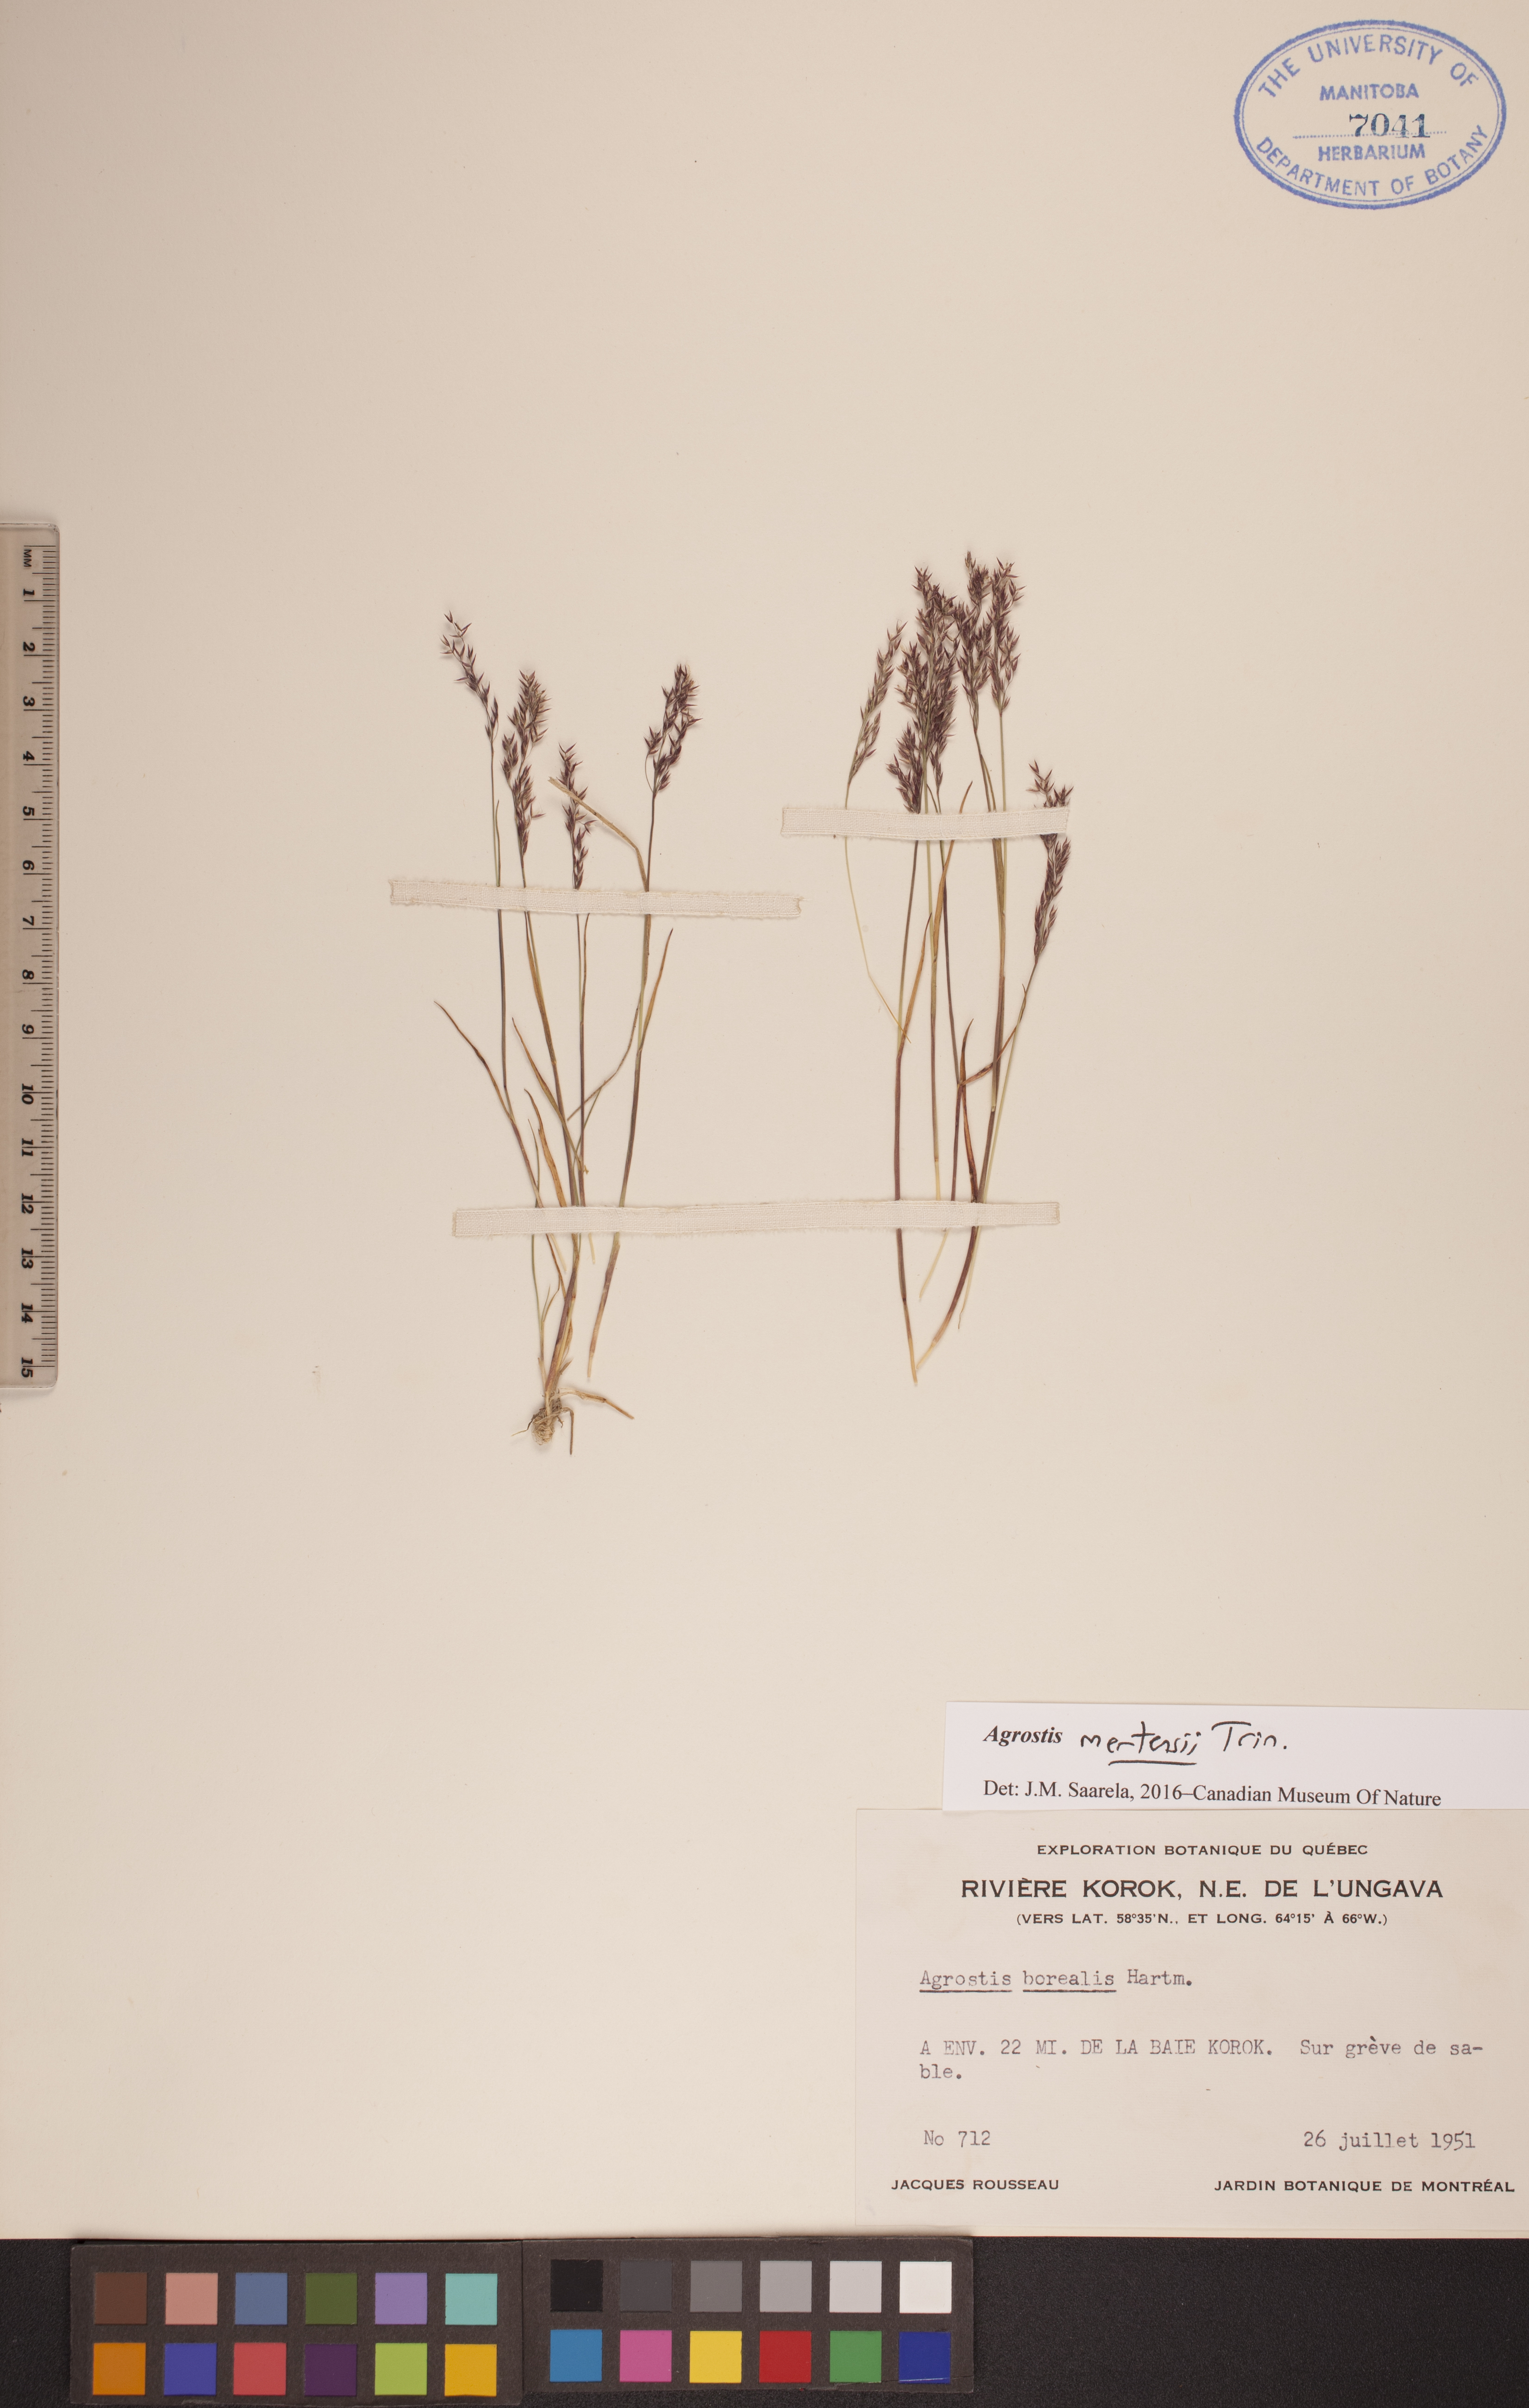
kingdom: Plantae
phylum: Tracheophyta
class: Liliopsida
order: Poales
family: Poaceae
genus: Agrostis
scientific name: Agrostis mertensii
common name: Northern bent
